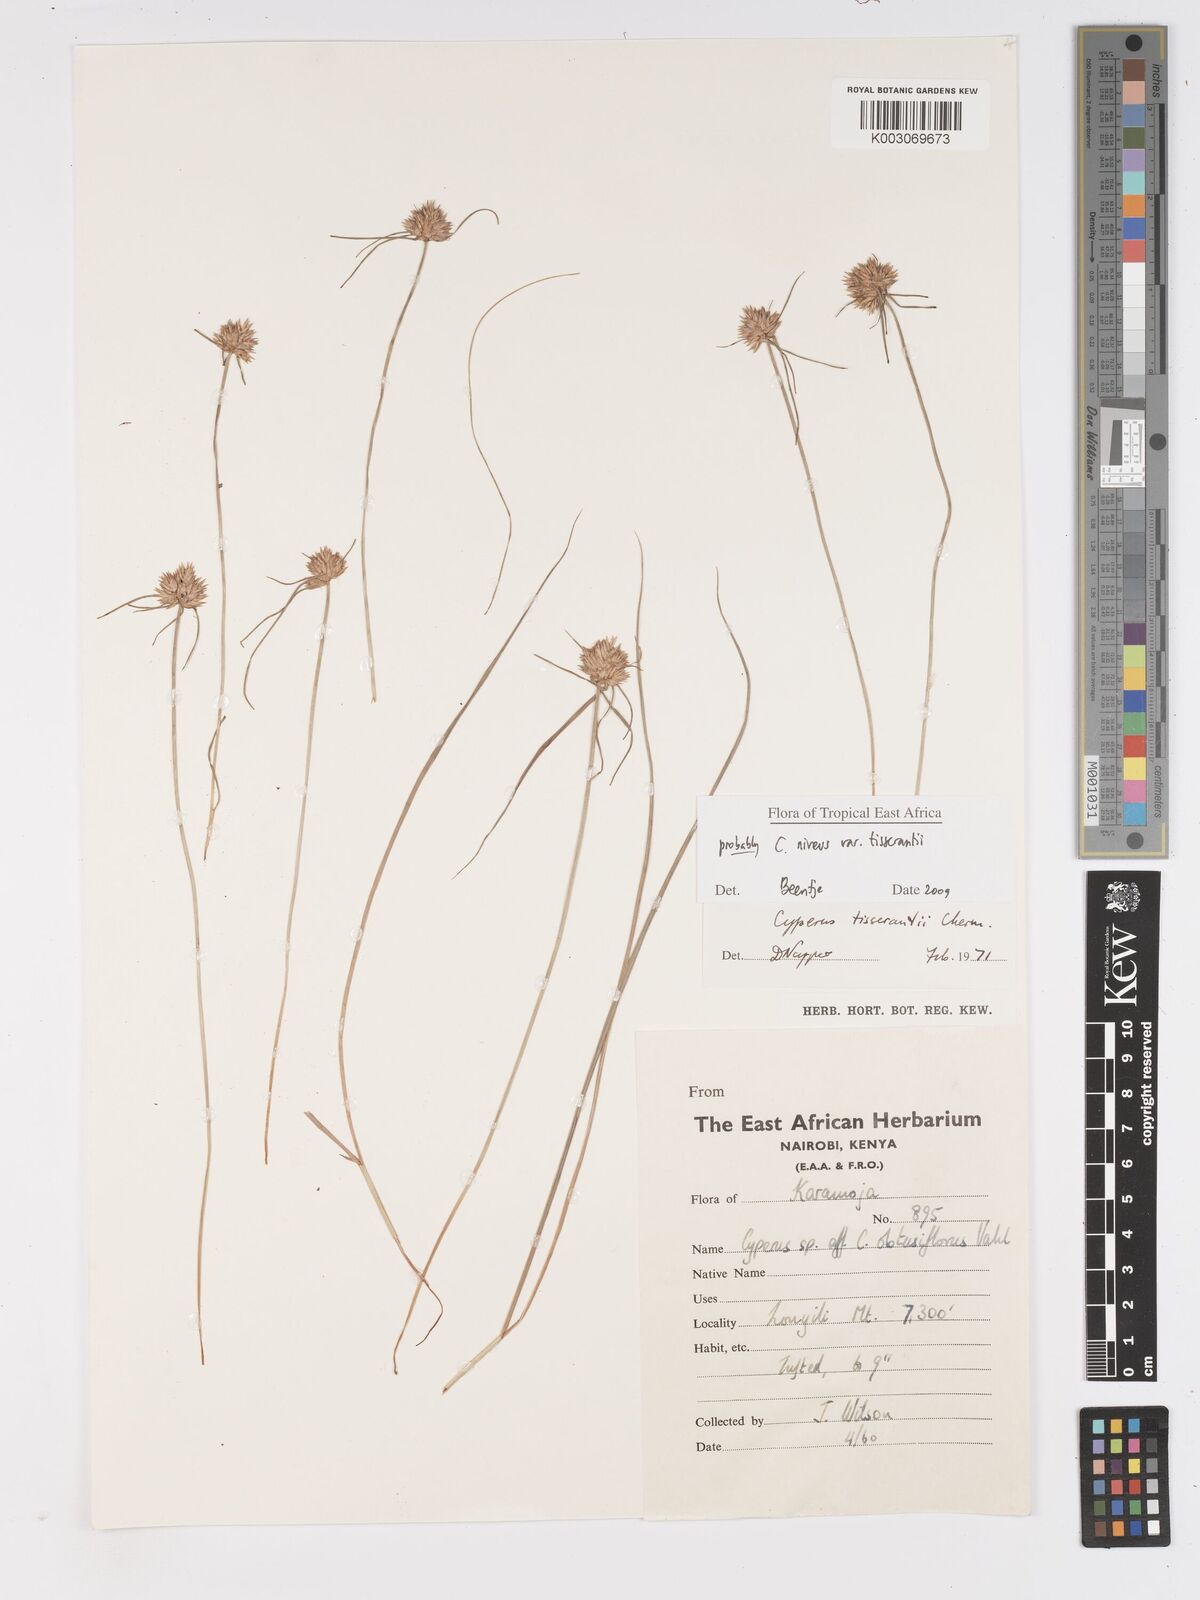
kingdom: Plantae
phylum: Tracheophyta
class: Liliopsida
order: Poales
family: Cyperaceae
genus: Cyperus
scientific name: Cyperus niveus
